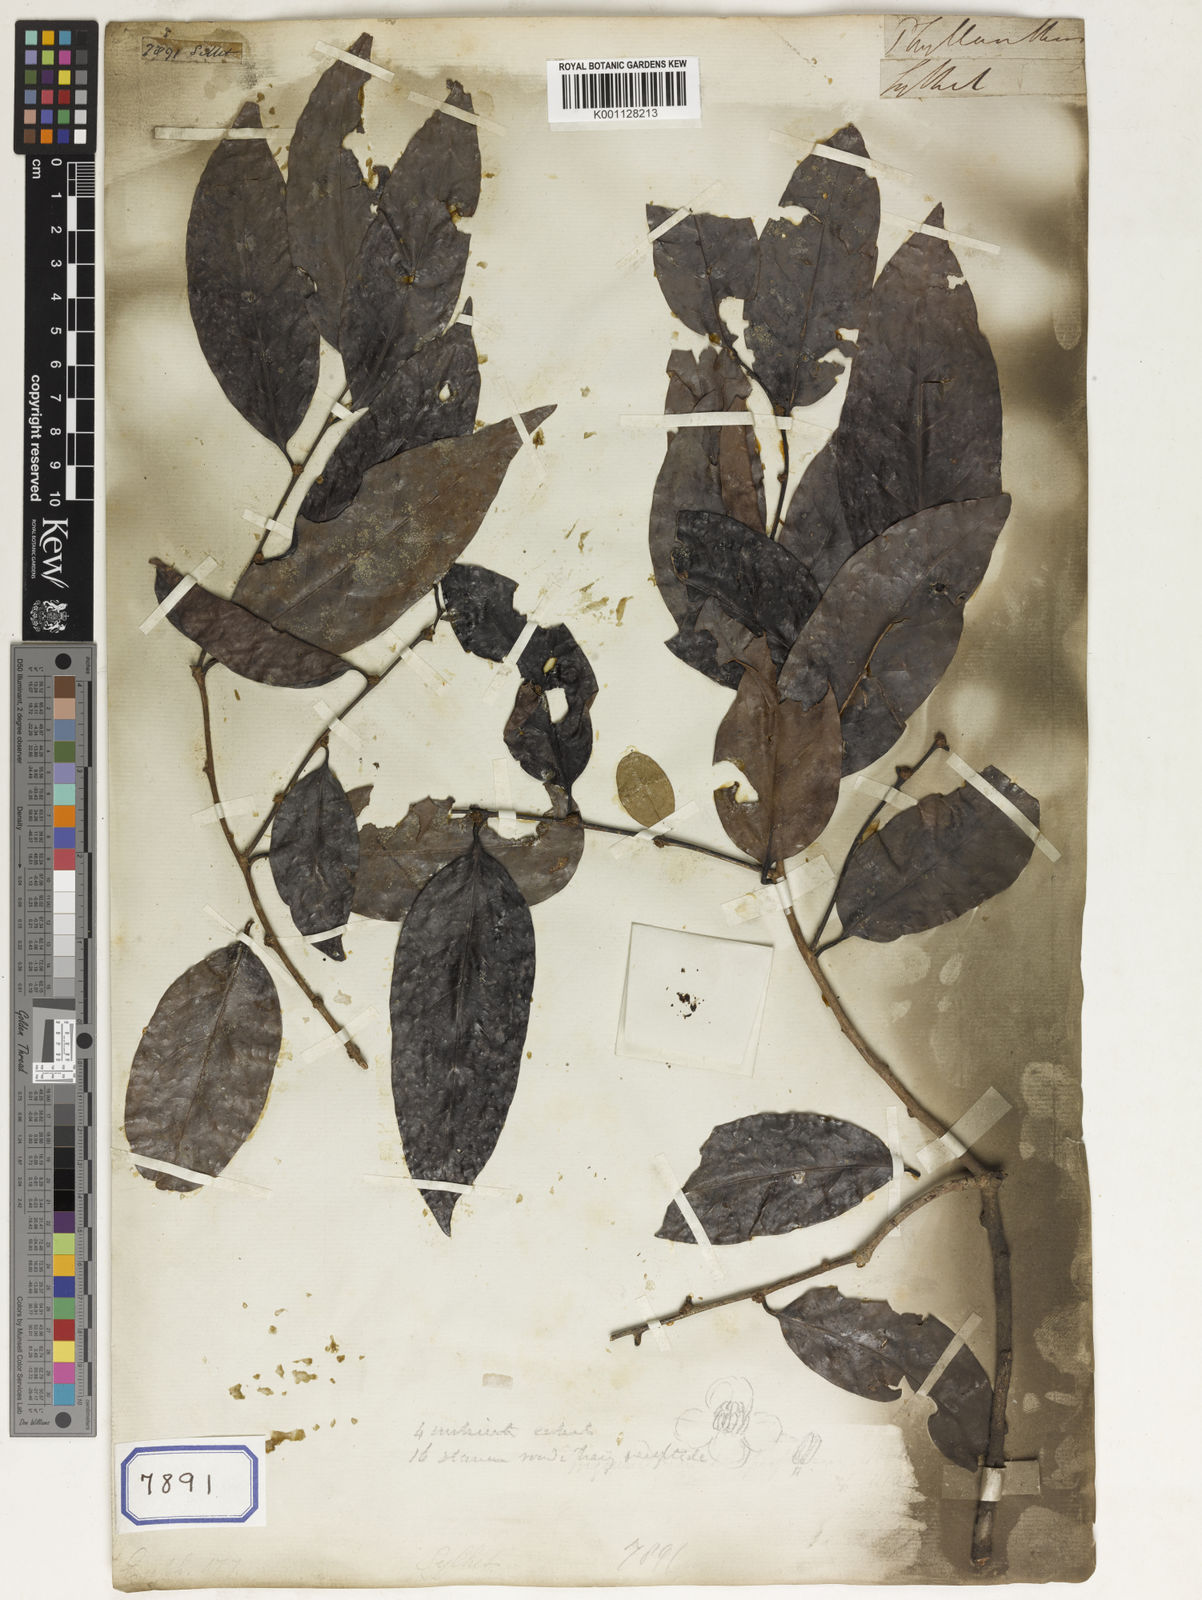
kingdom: Plantae
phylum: Tracheophyta
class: Magnoliopsida
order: Malpighiales
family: Euphorbiaceae
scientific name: Euphorbiaceae
